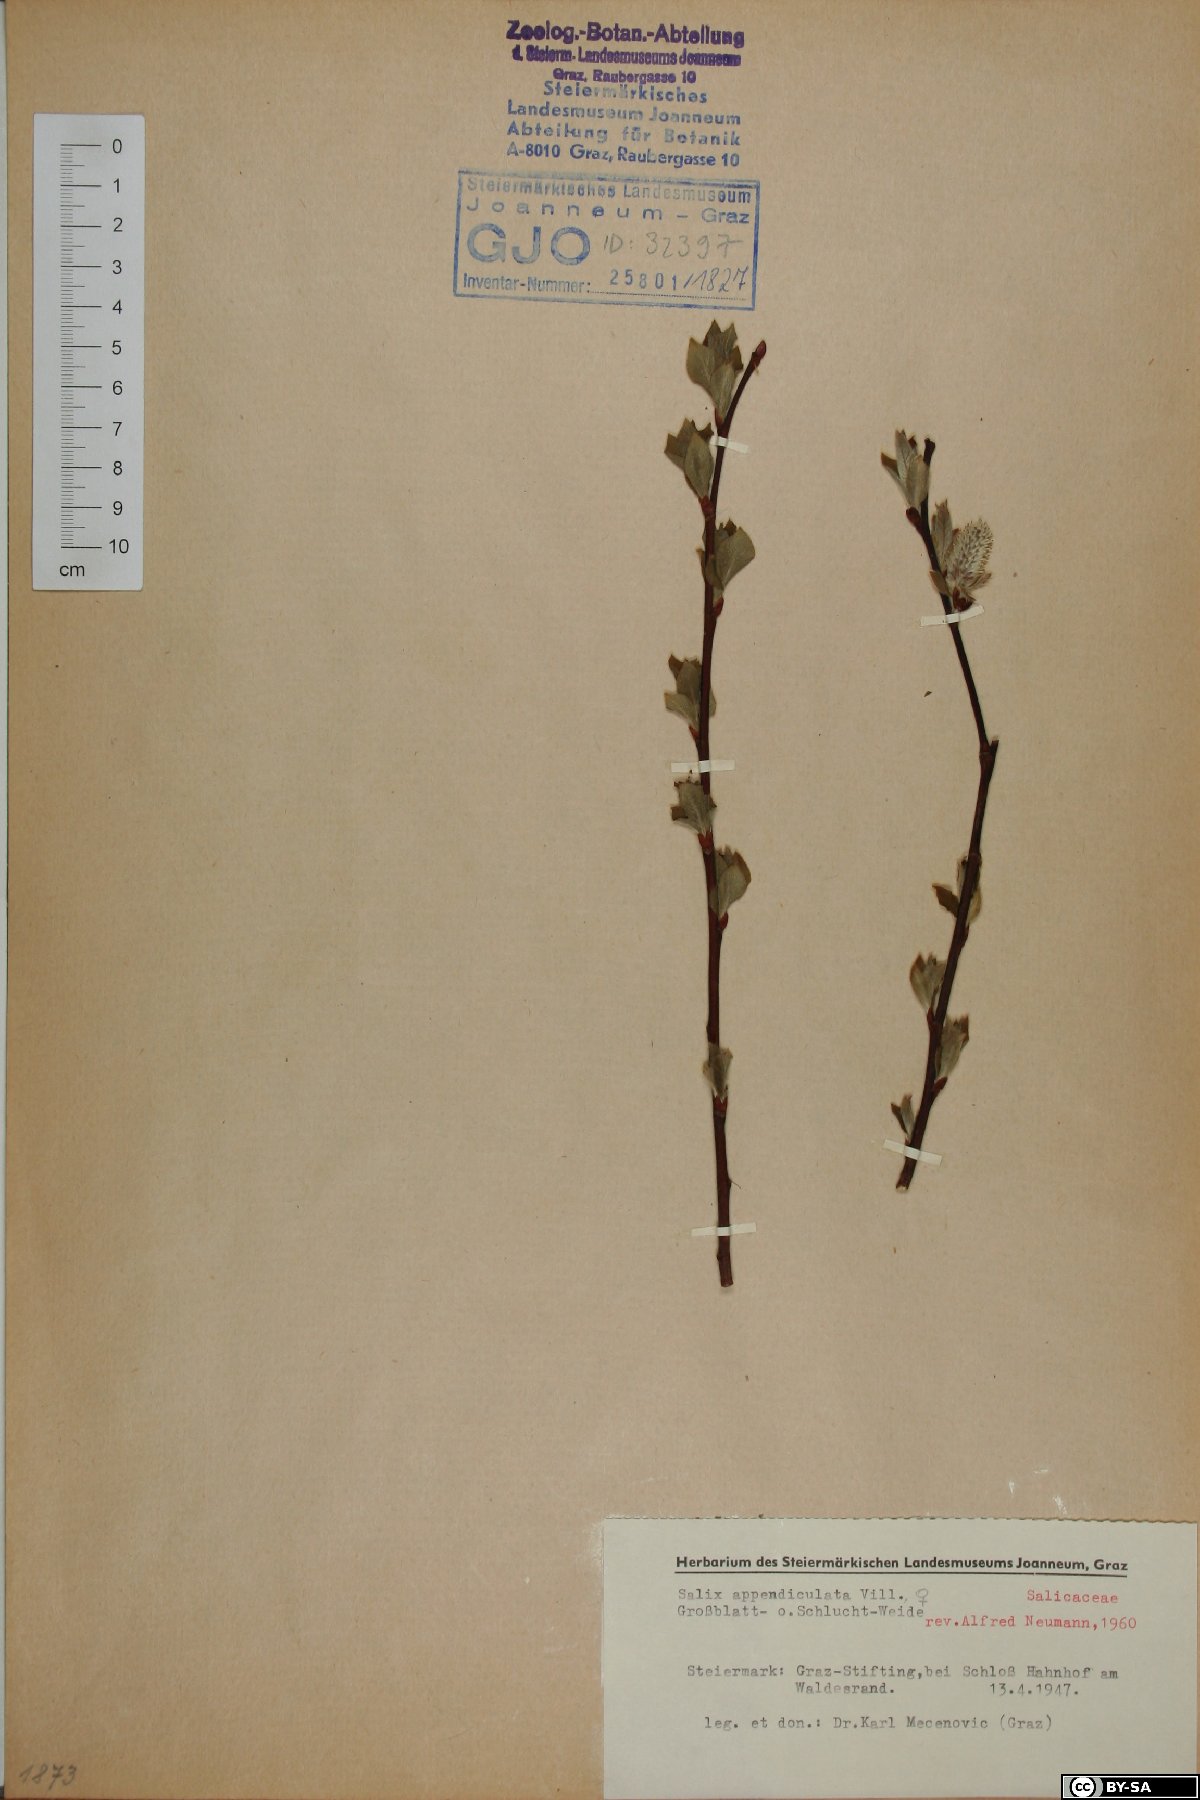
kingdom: Plantae
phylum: Tracheophyta
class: Magnoliopsida
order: Malpighiales
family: Salicaceae
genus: Salix
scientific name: Salix appendiculata
